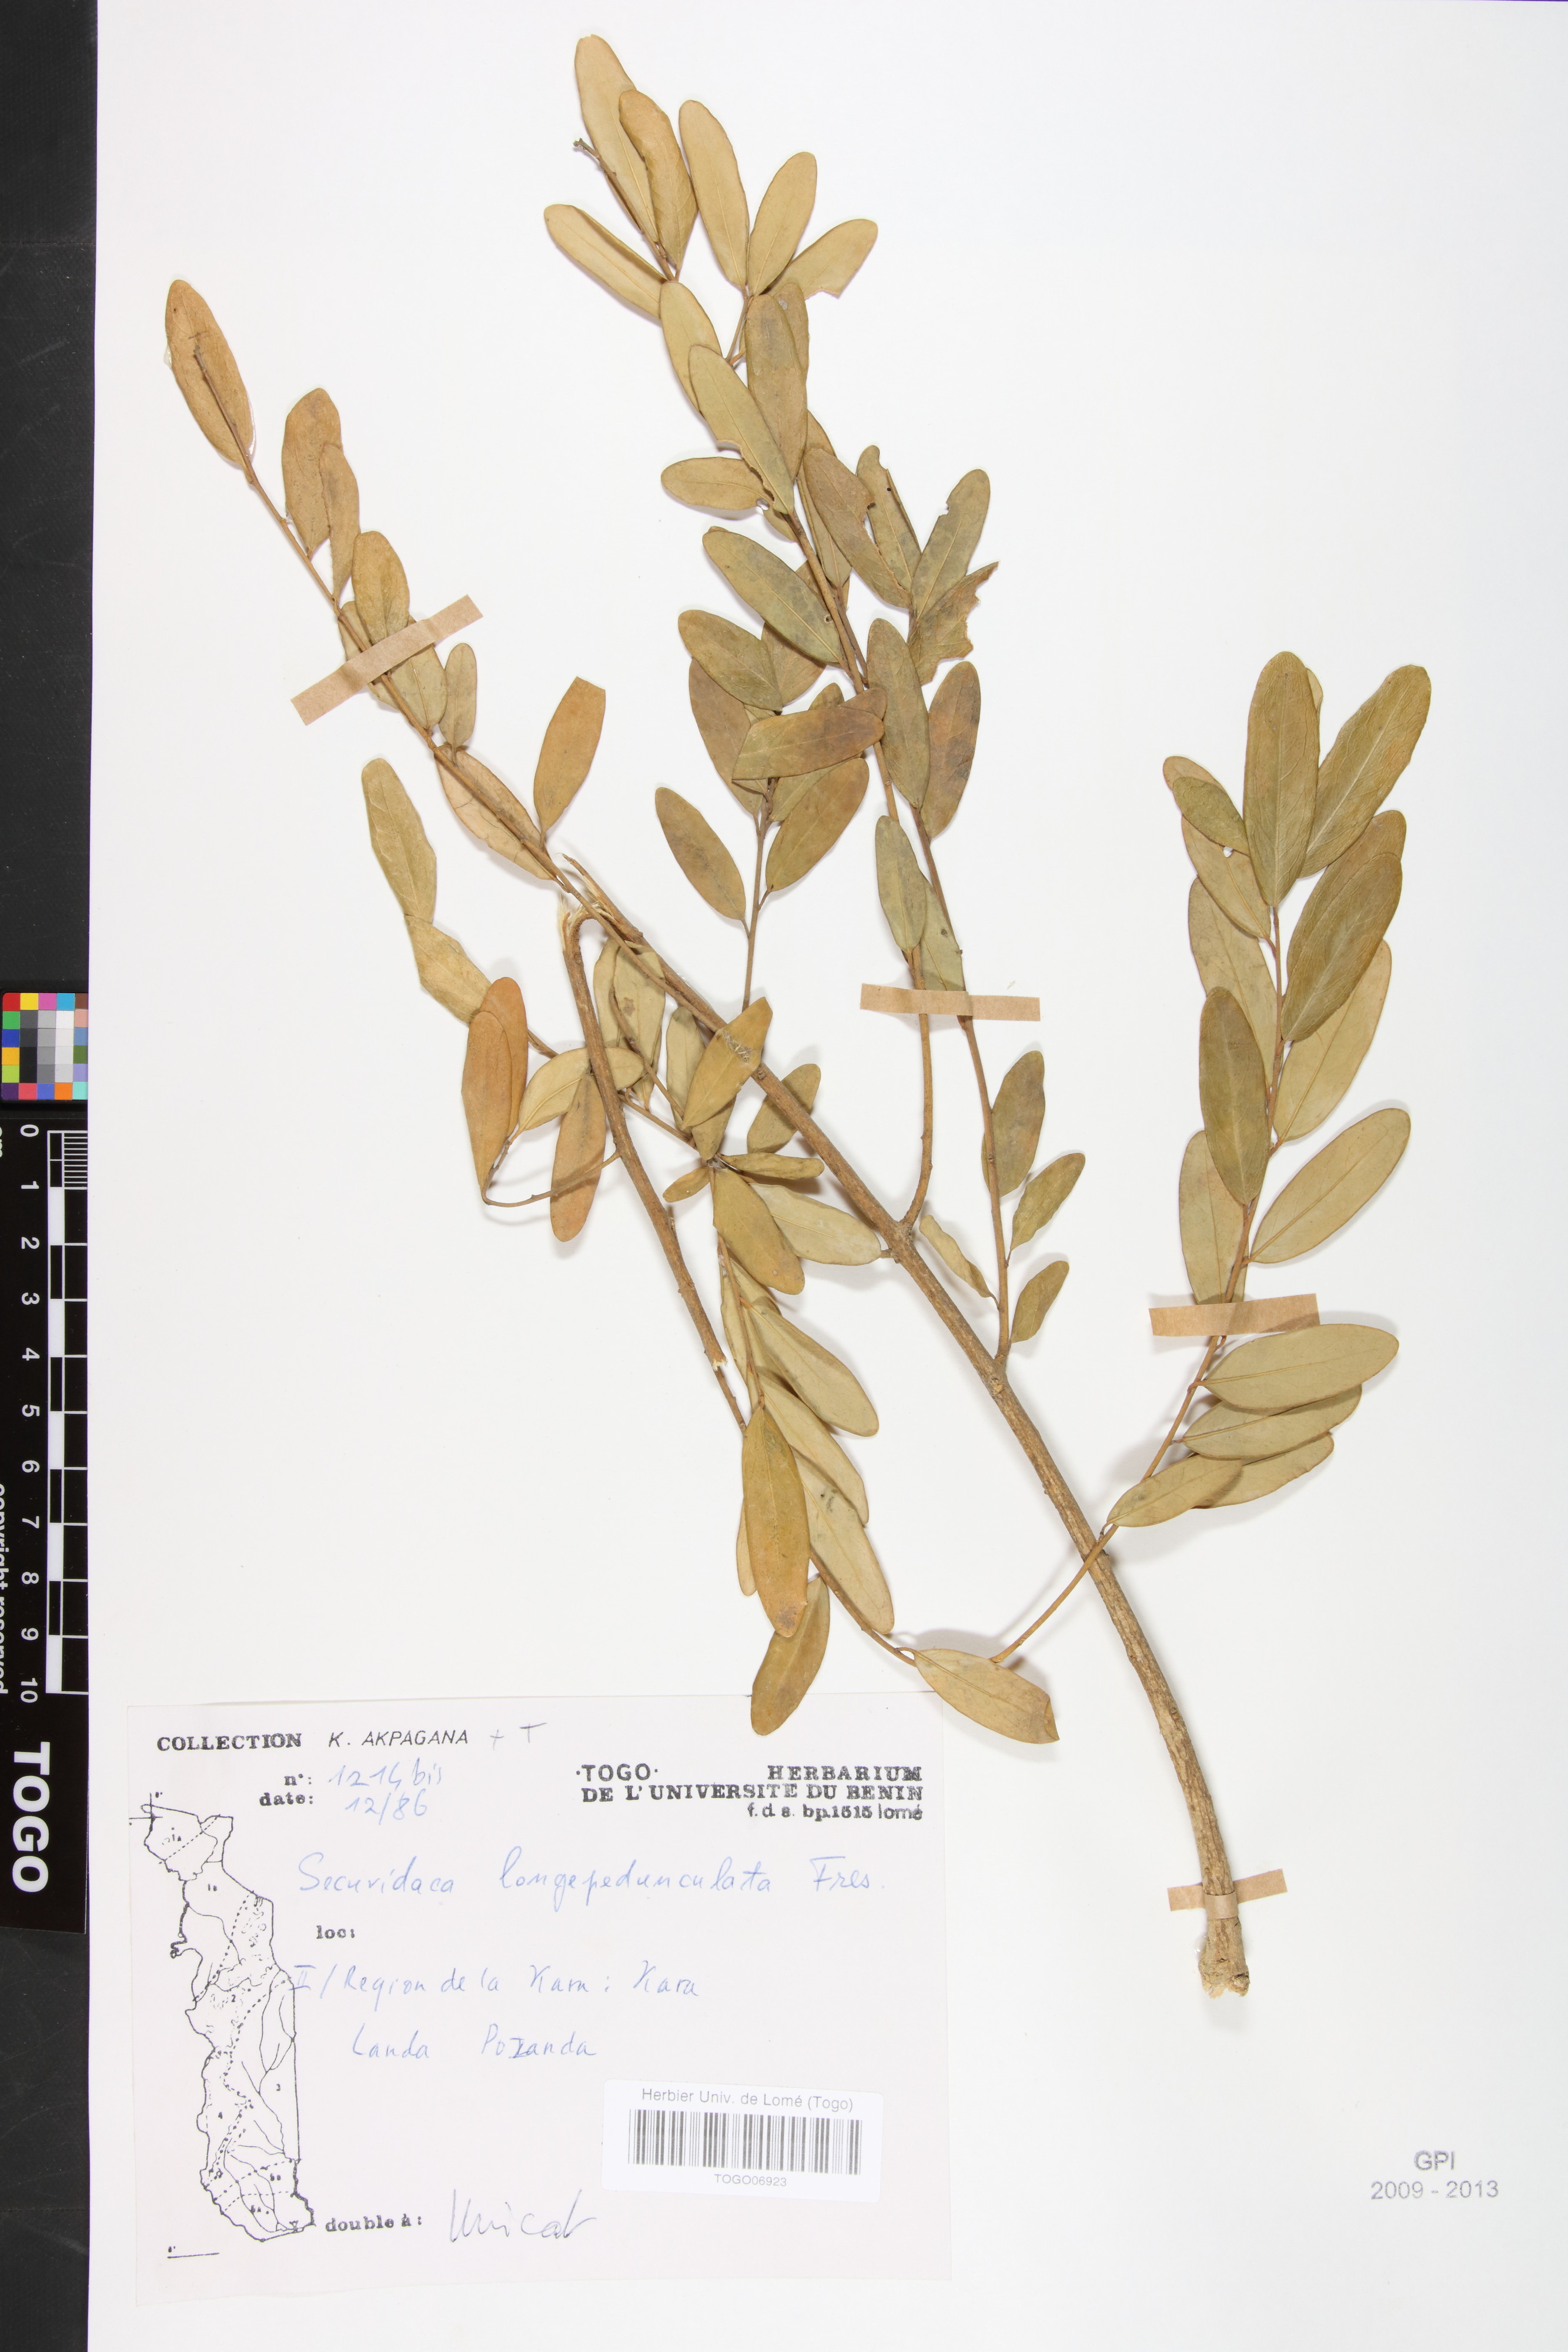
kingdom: Plantae
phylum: Tracheophyta
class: Magnoliopsida
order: Fabales
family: Polygalaceae
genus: Securidaca
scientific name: Securidaca longepedunculata
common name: Violet tree
